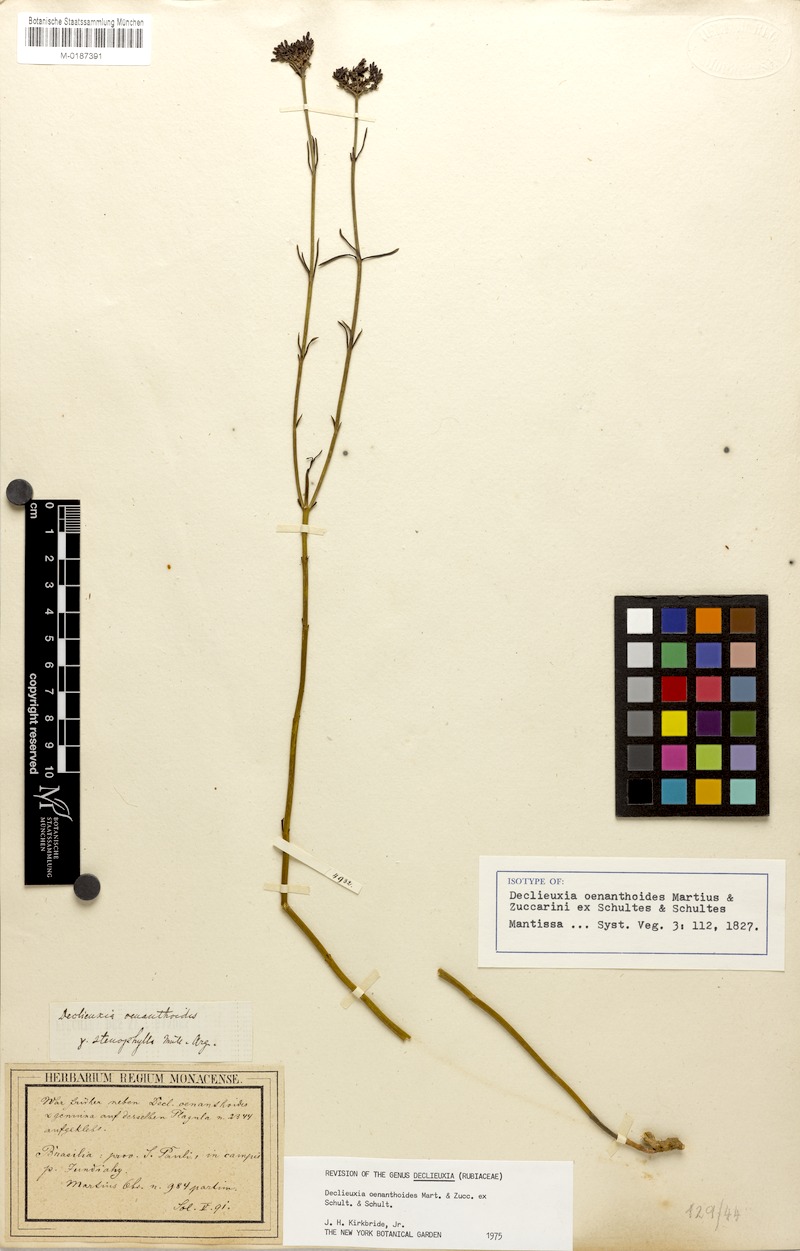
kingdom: Plantae
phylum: Tracheophyta
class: Magnoliopsida
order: Gentianales
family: Rubiaceae
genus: Declieuxia
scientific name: Declieuxia oenanthoides
